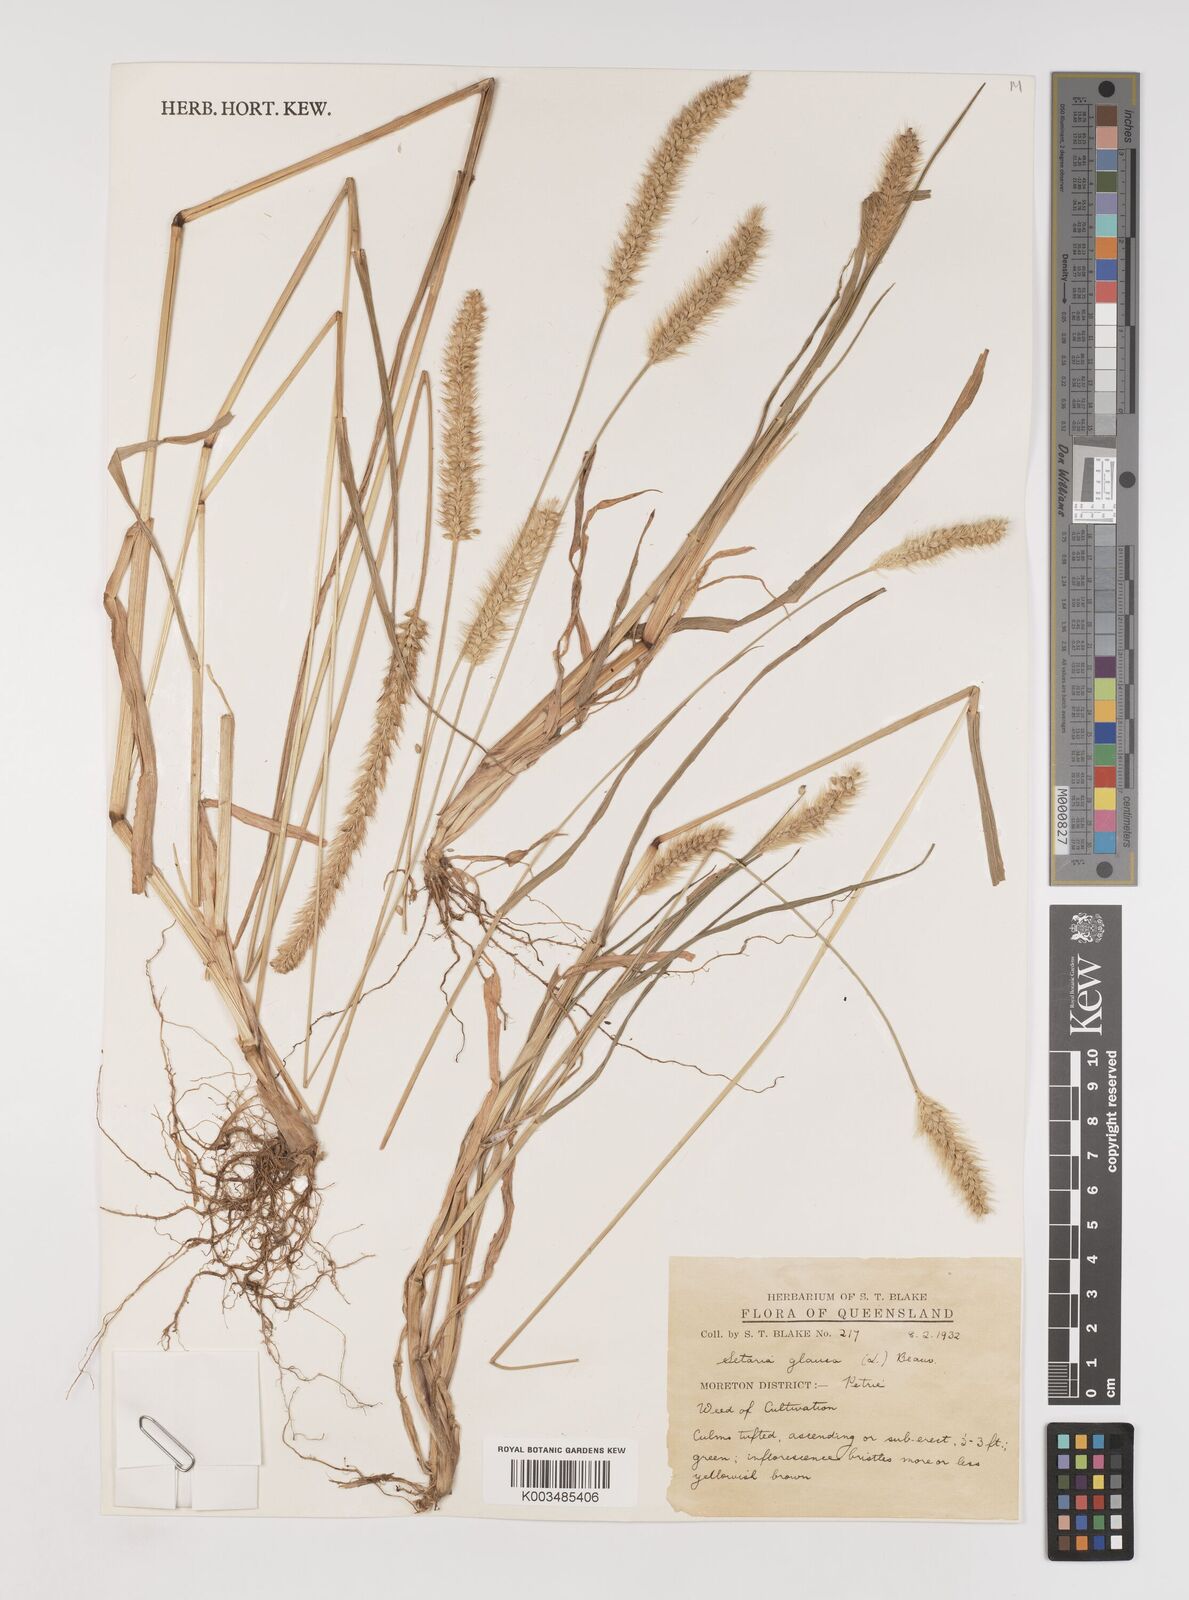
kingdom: Plantae
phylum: Tracheophyta
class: Liliopsida
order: Poales
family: Poaceae
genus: Setaria
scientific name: Setaria pumila
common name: Yellow bristle-grass
